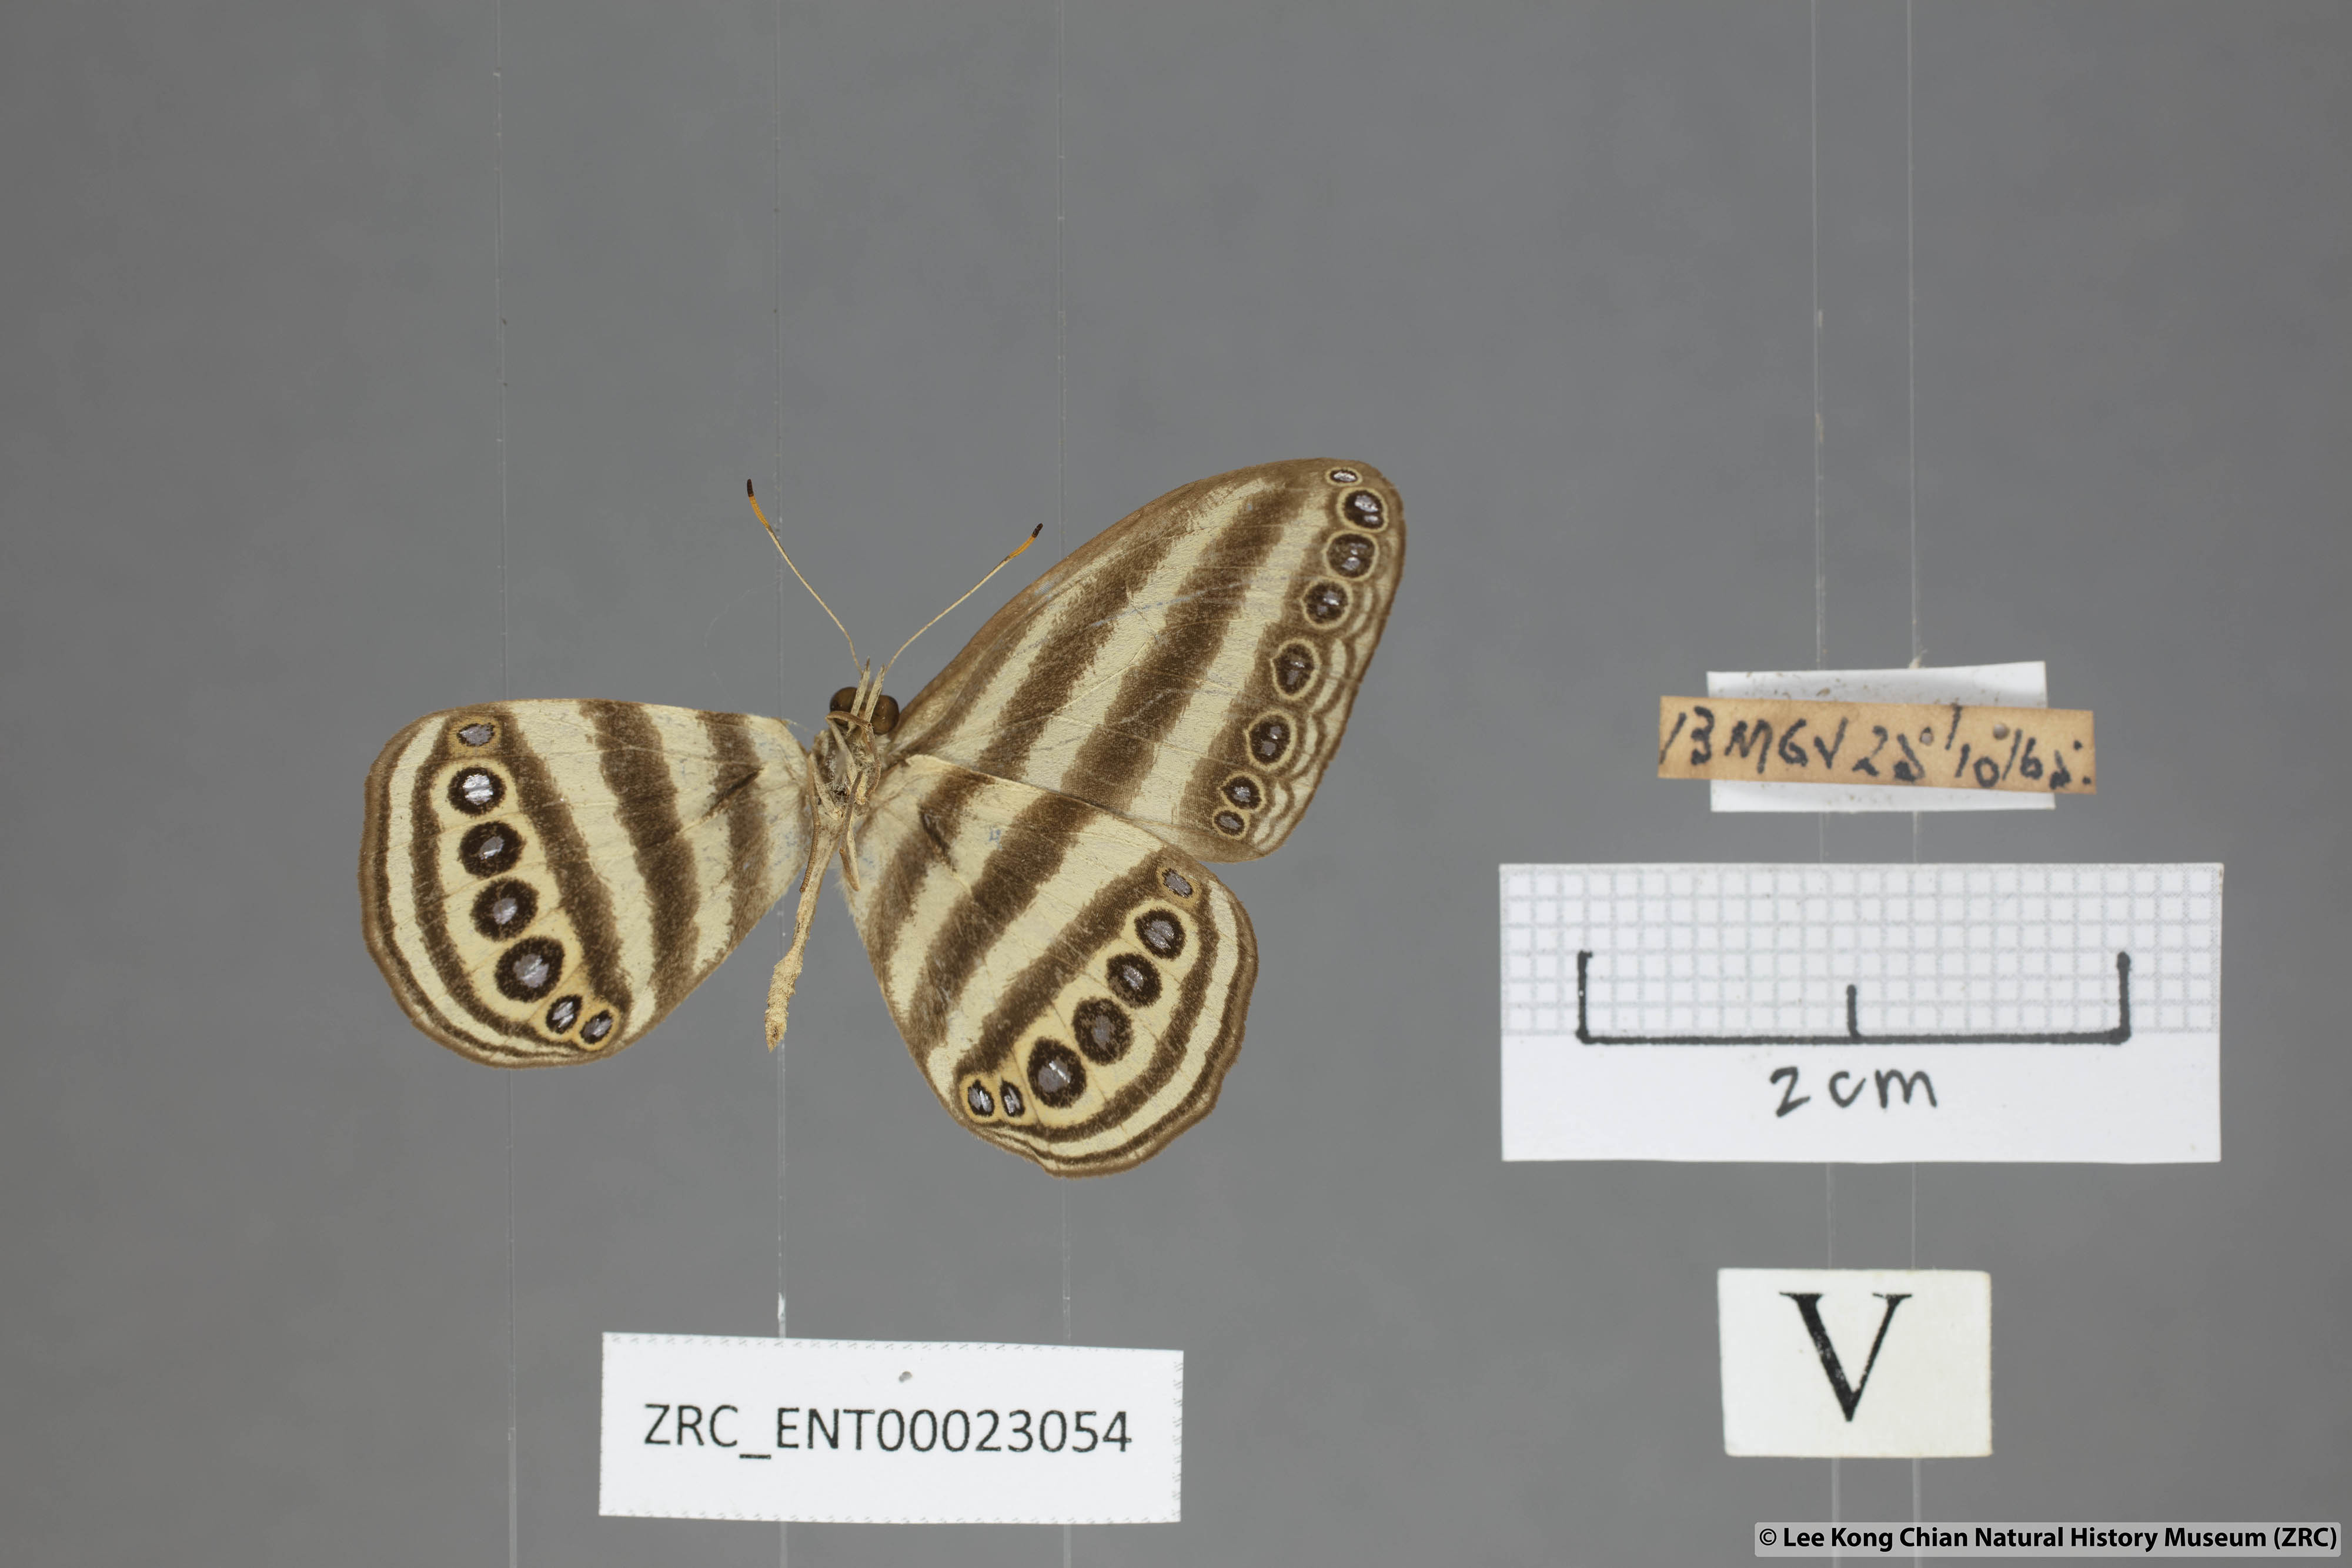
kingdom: Animalia
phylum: Arthropoda
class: Insecta
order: Lepidoptera
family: Nymphalidae
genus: Ragadia
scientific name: Ragadia makata
